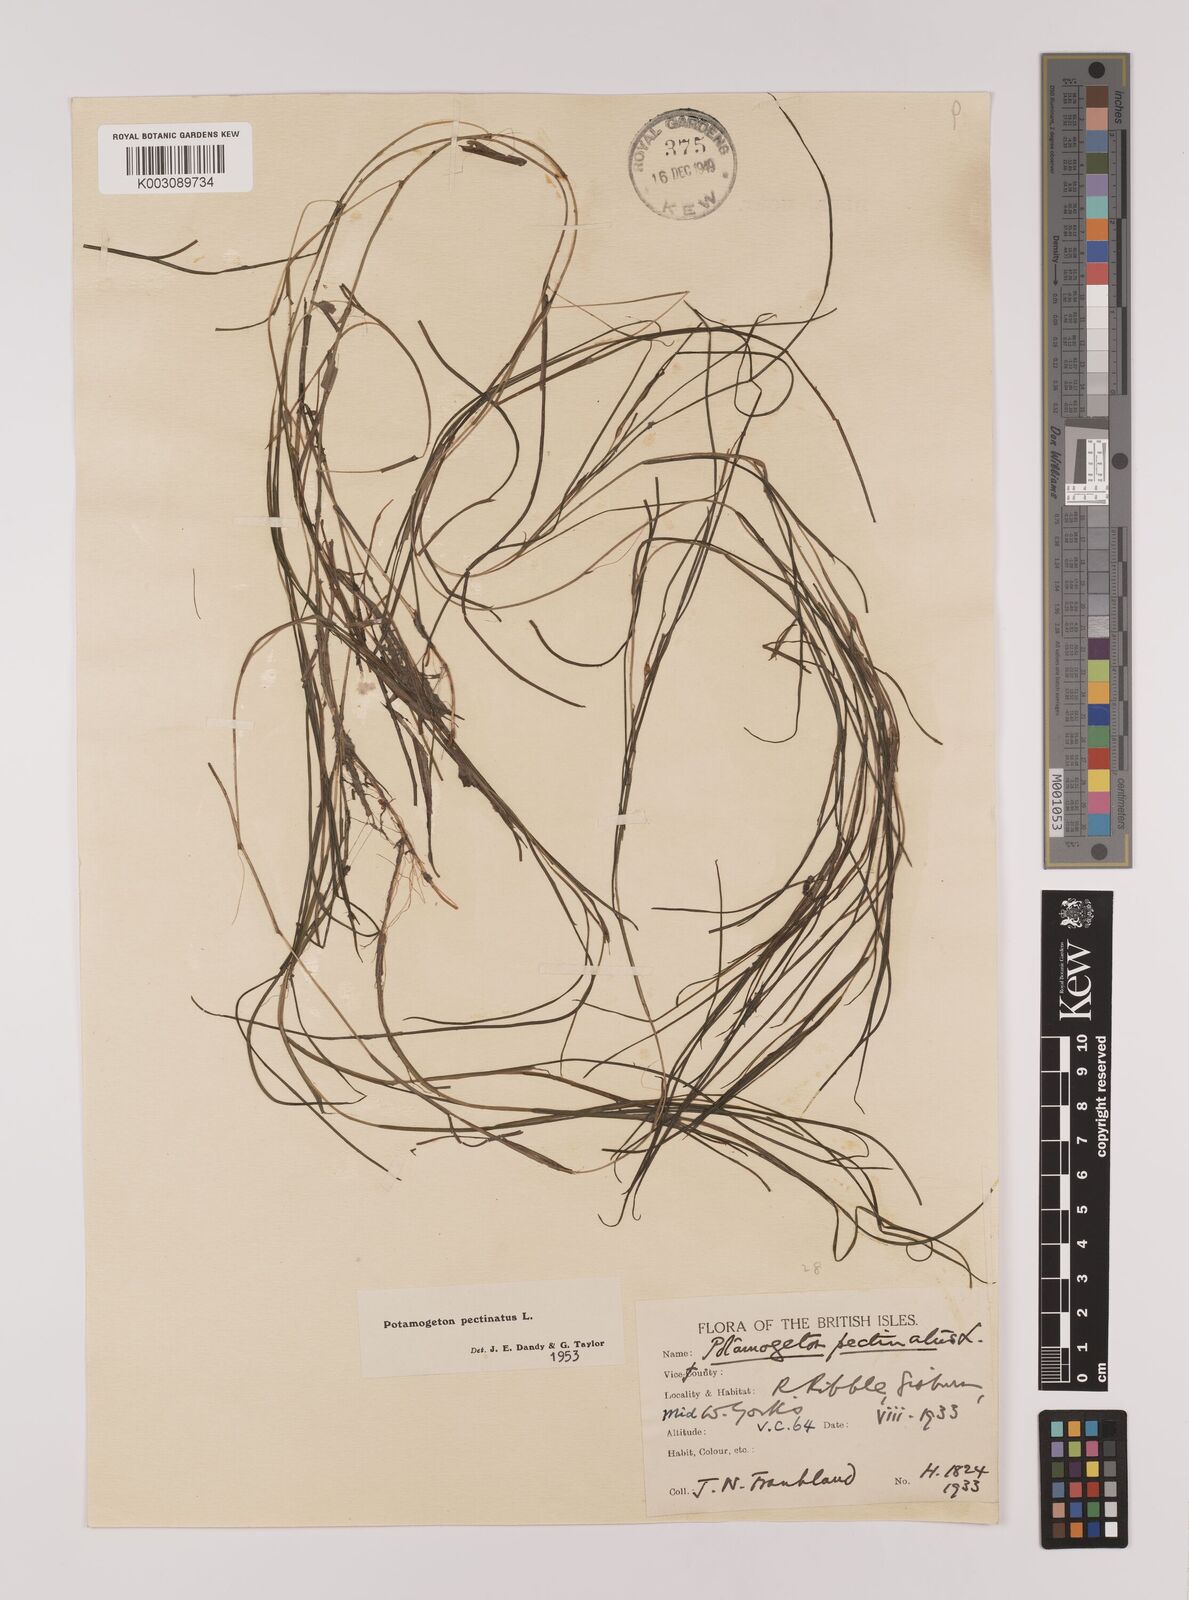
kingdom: Plantae
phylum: Tracheophyta
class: Liliopsida
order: Alismatales
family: Potamogetonaceae
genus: Stuckenia
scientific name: Stuckenia pectinata
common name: Sago pondweed
